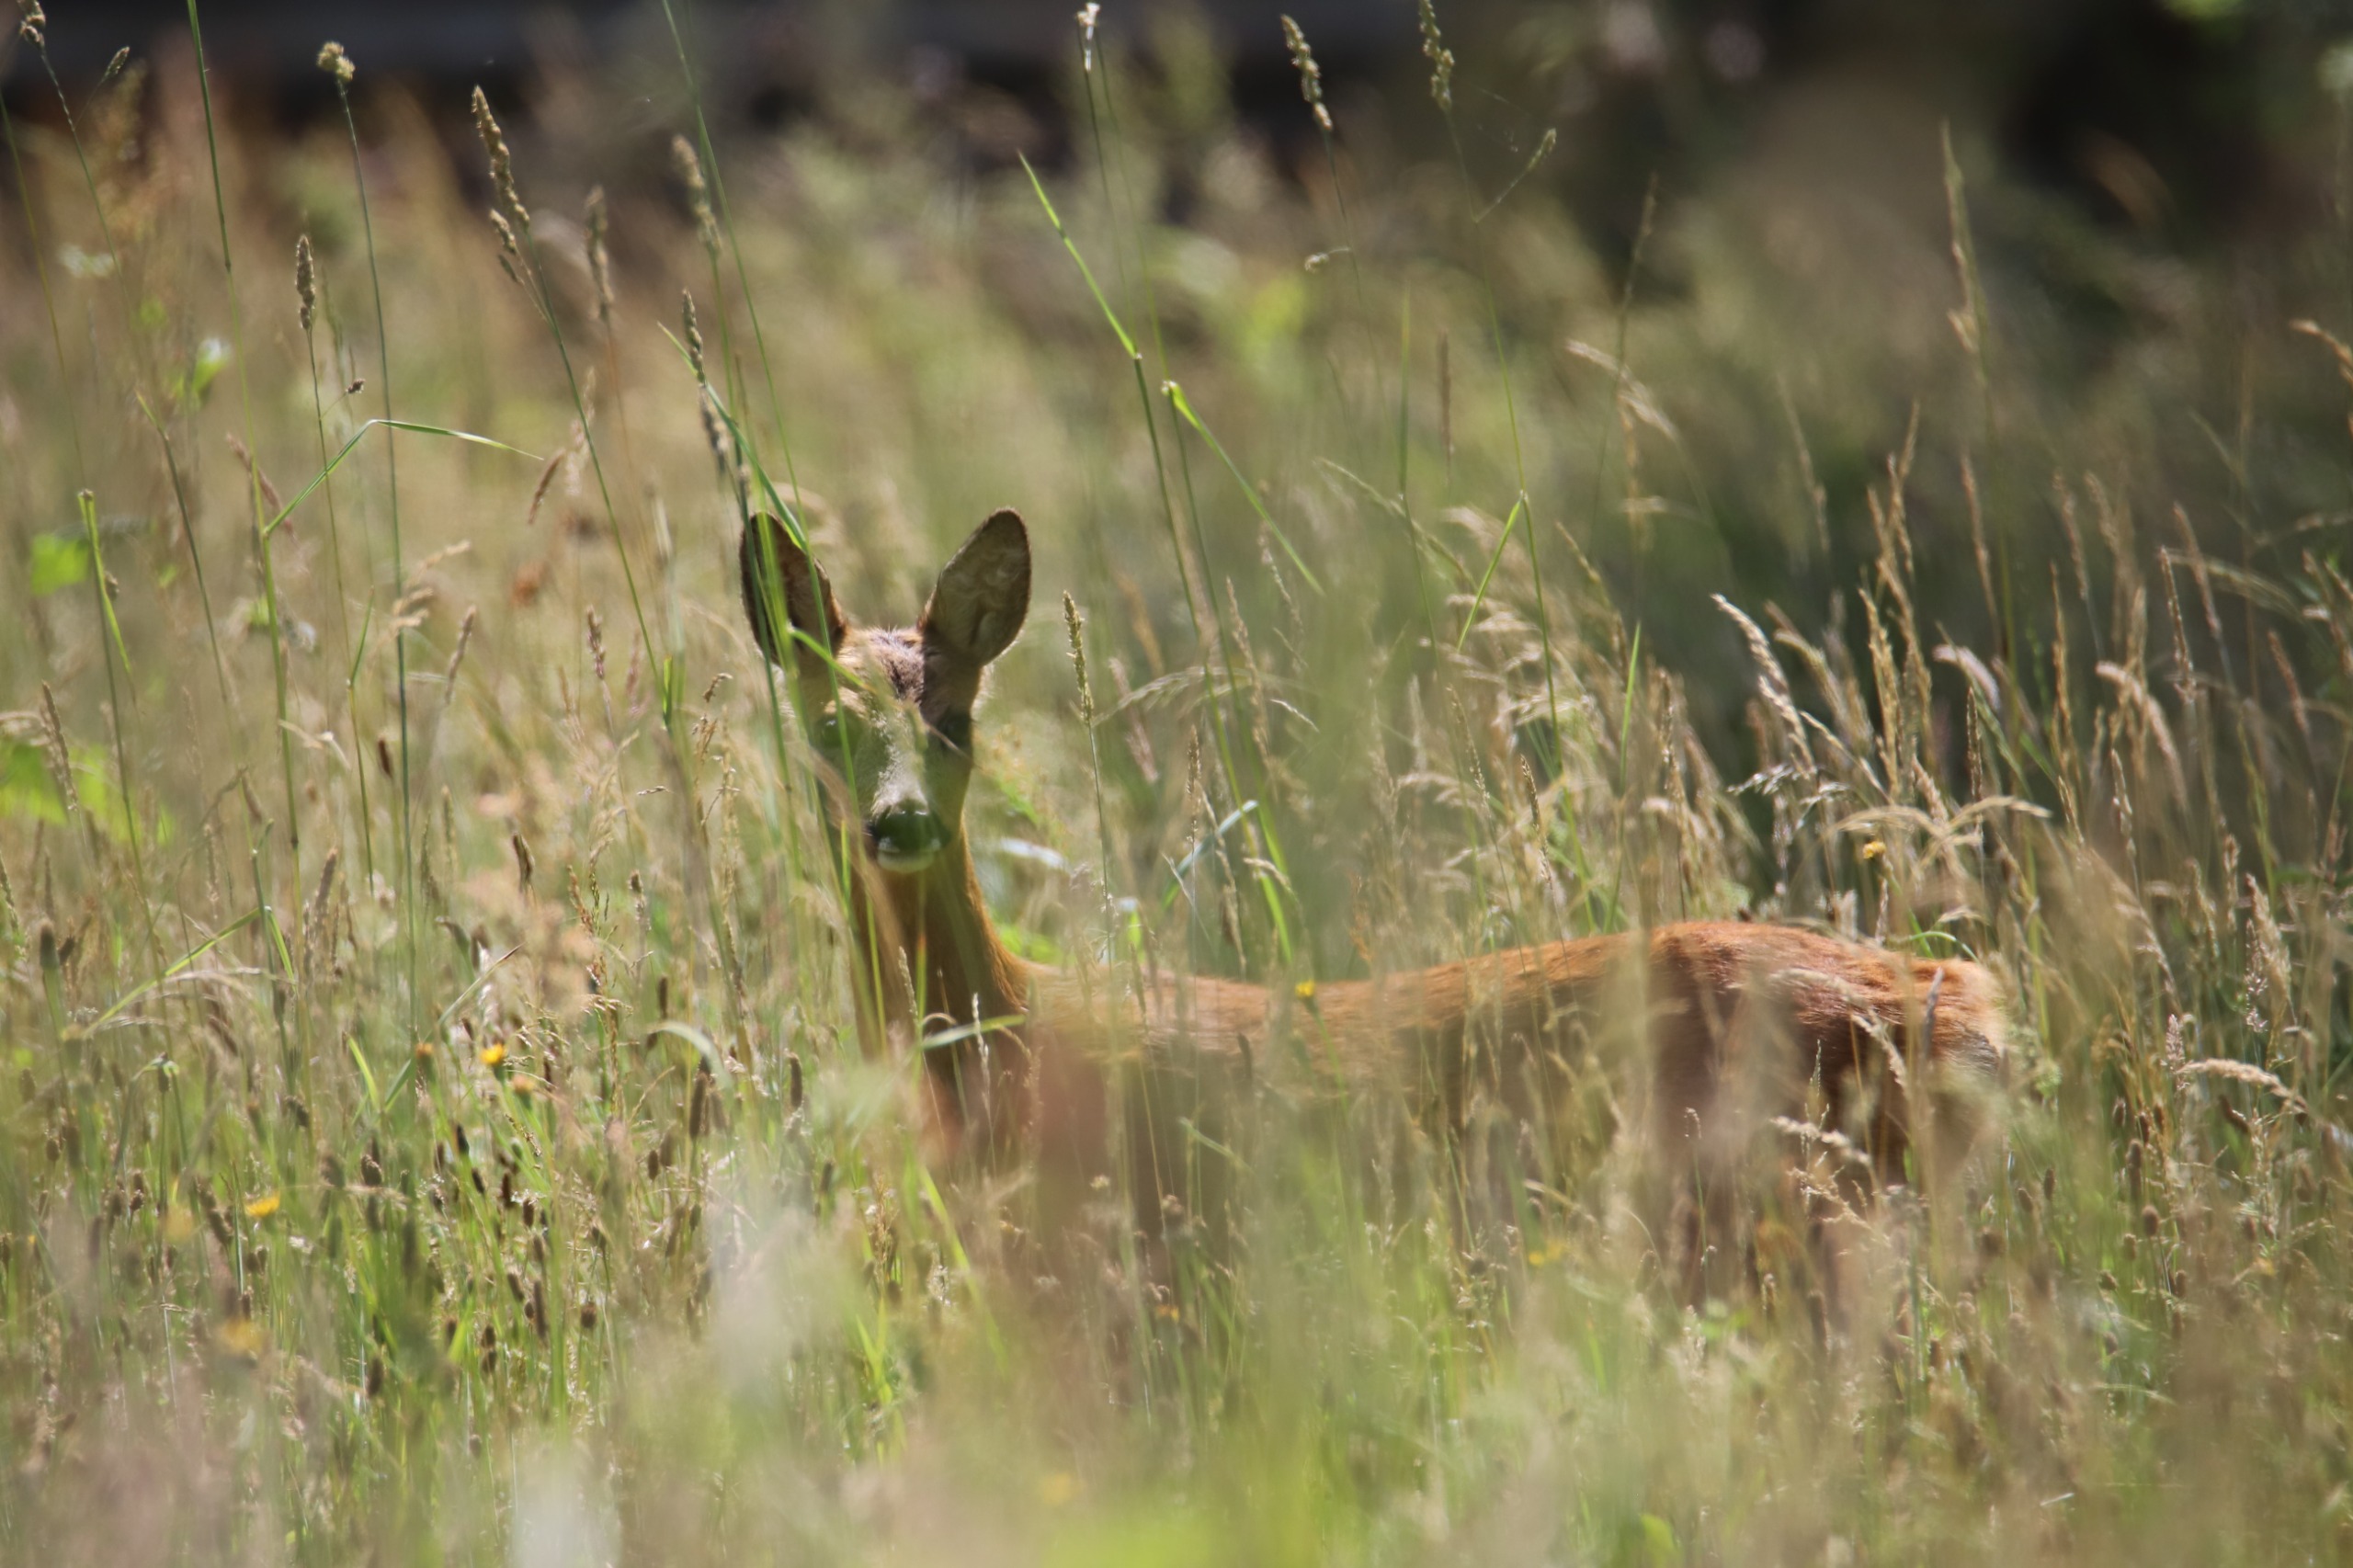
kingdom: Animalia
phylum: Chordata
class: Mammalia
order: Artiodactyla
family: Cervidae
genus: Capreolus
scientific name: Capreolus capreolus
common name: Rådyr
